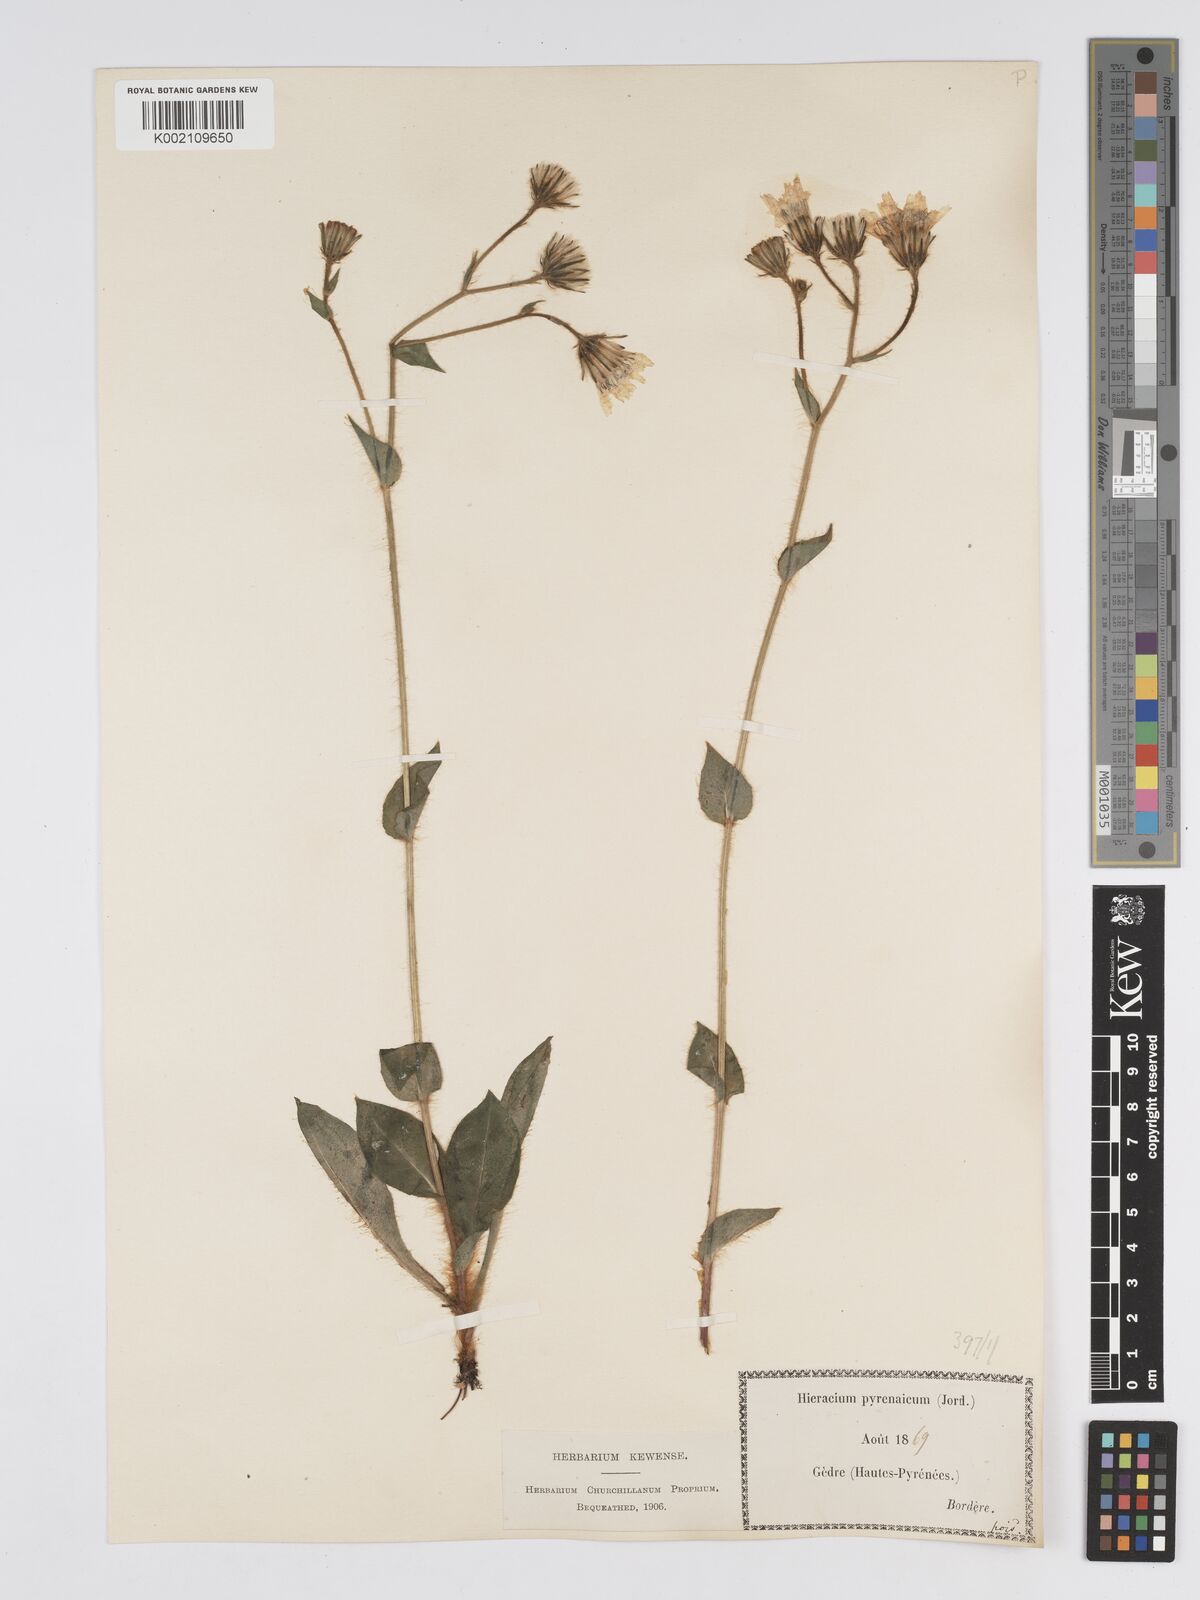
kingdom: Plantae
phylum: Tracheophyta
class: Magnoliopsida
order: Asterales
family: Asteraceae
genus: Hieracium
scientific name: Hieracium nobile
